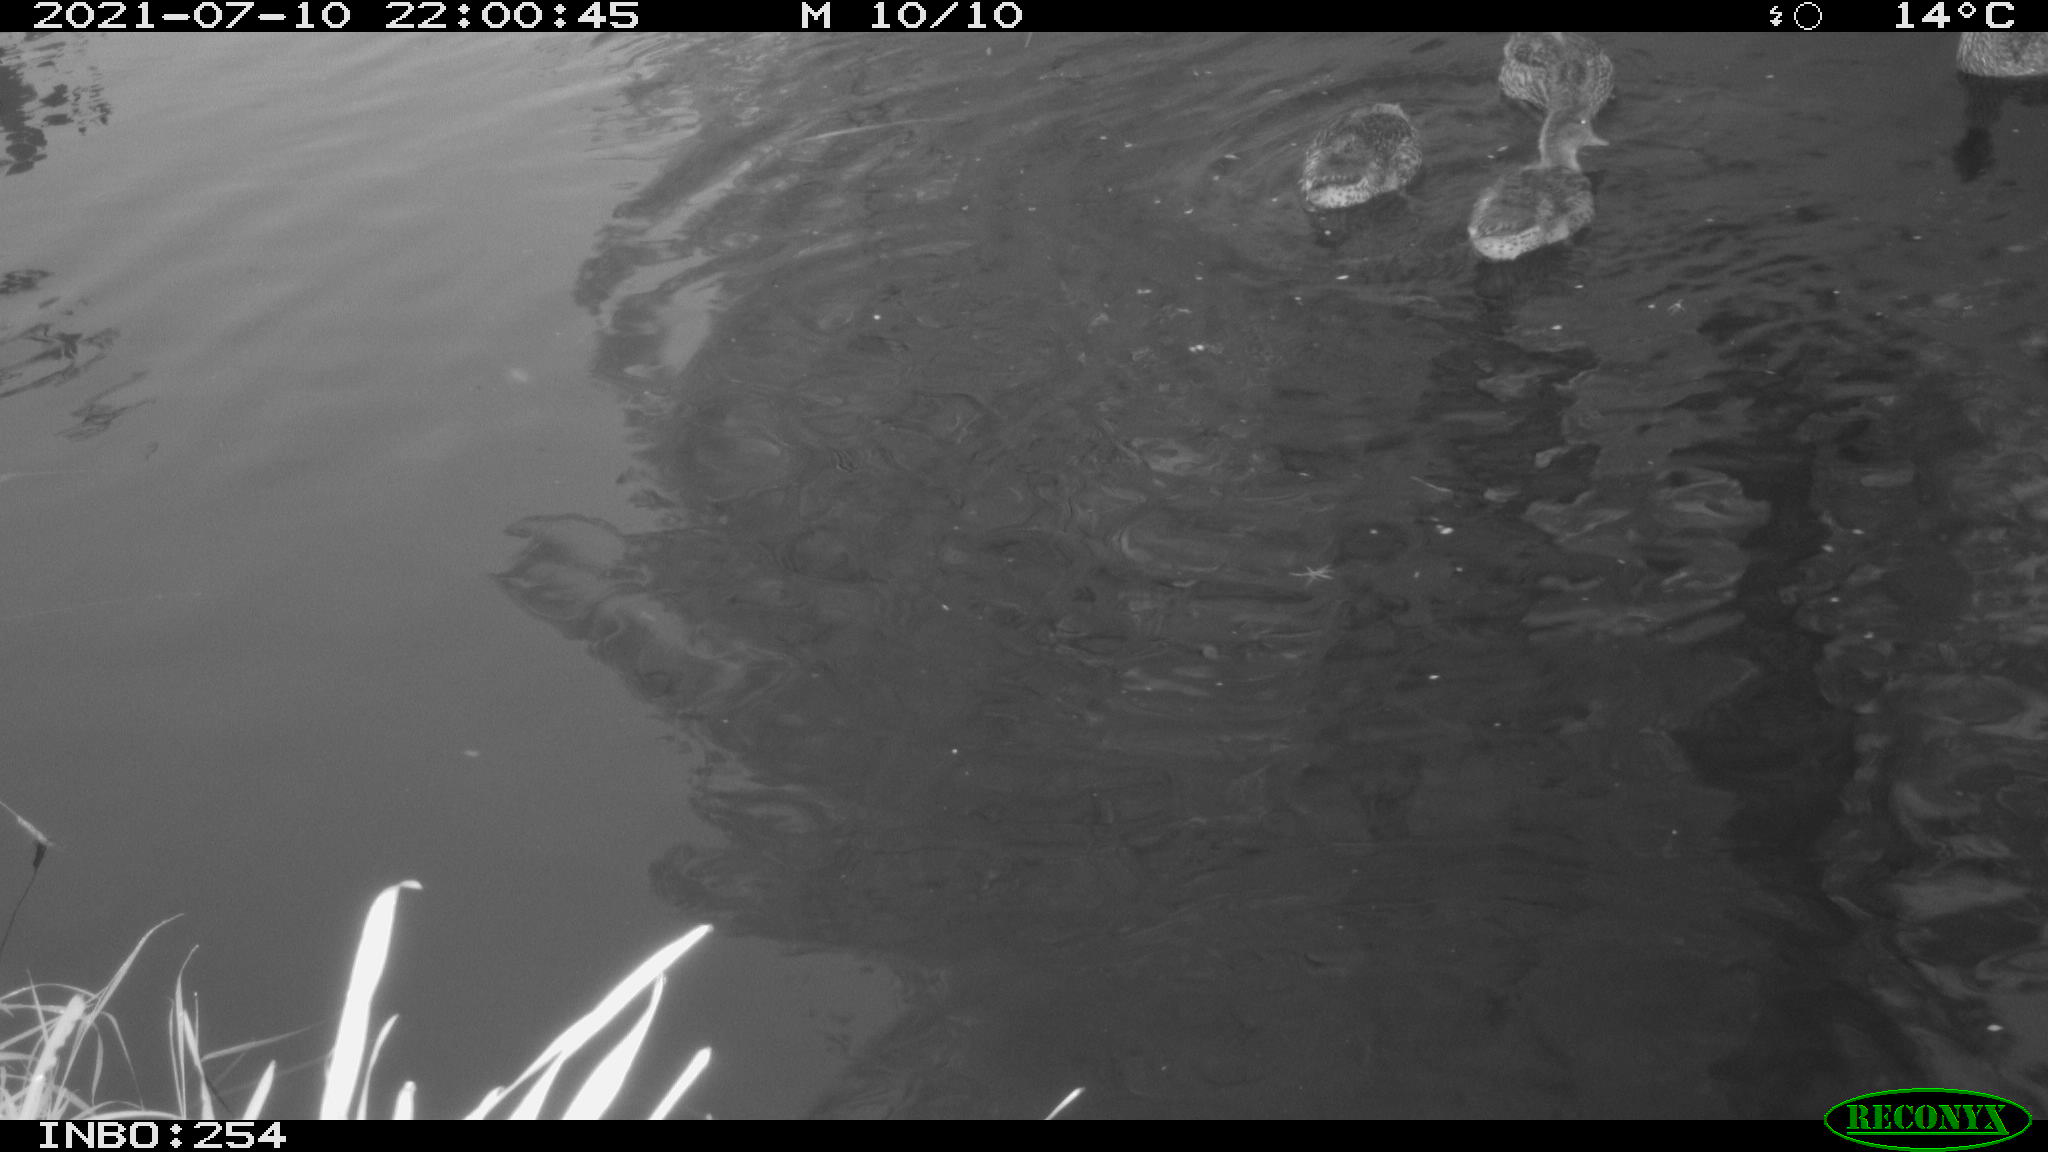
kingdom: Animalia
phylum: Chordata
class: Aves
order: Anseriformes
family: Anatidae
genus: Anas
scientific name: Anas platyrhynchos
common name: Mallard
